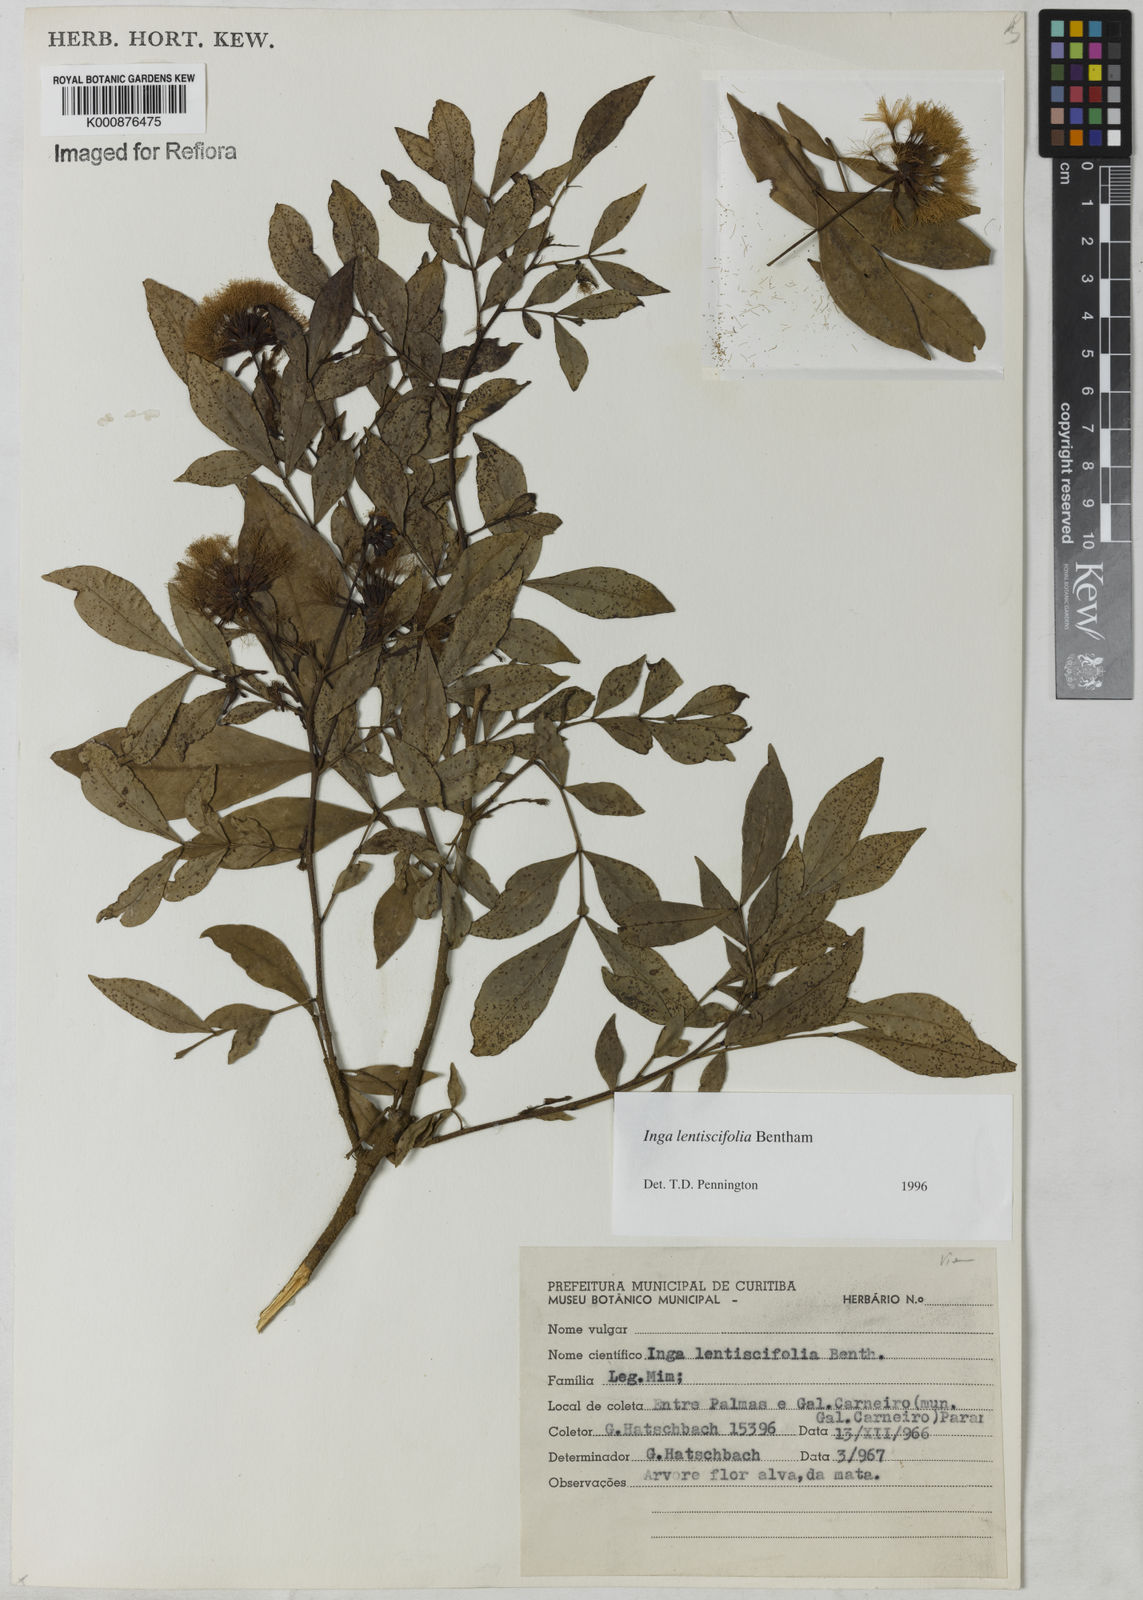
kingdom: Plantae
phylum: Tracheophyta
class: Magnoliopsida
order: Fabales
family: Fabaceae
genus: Inga
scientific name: Inga lentiscifolia
